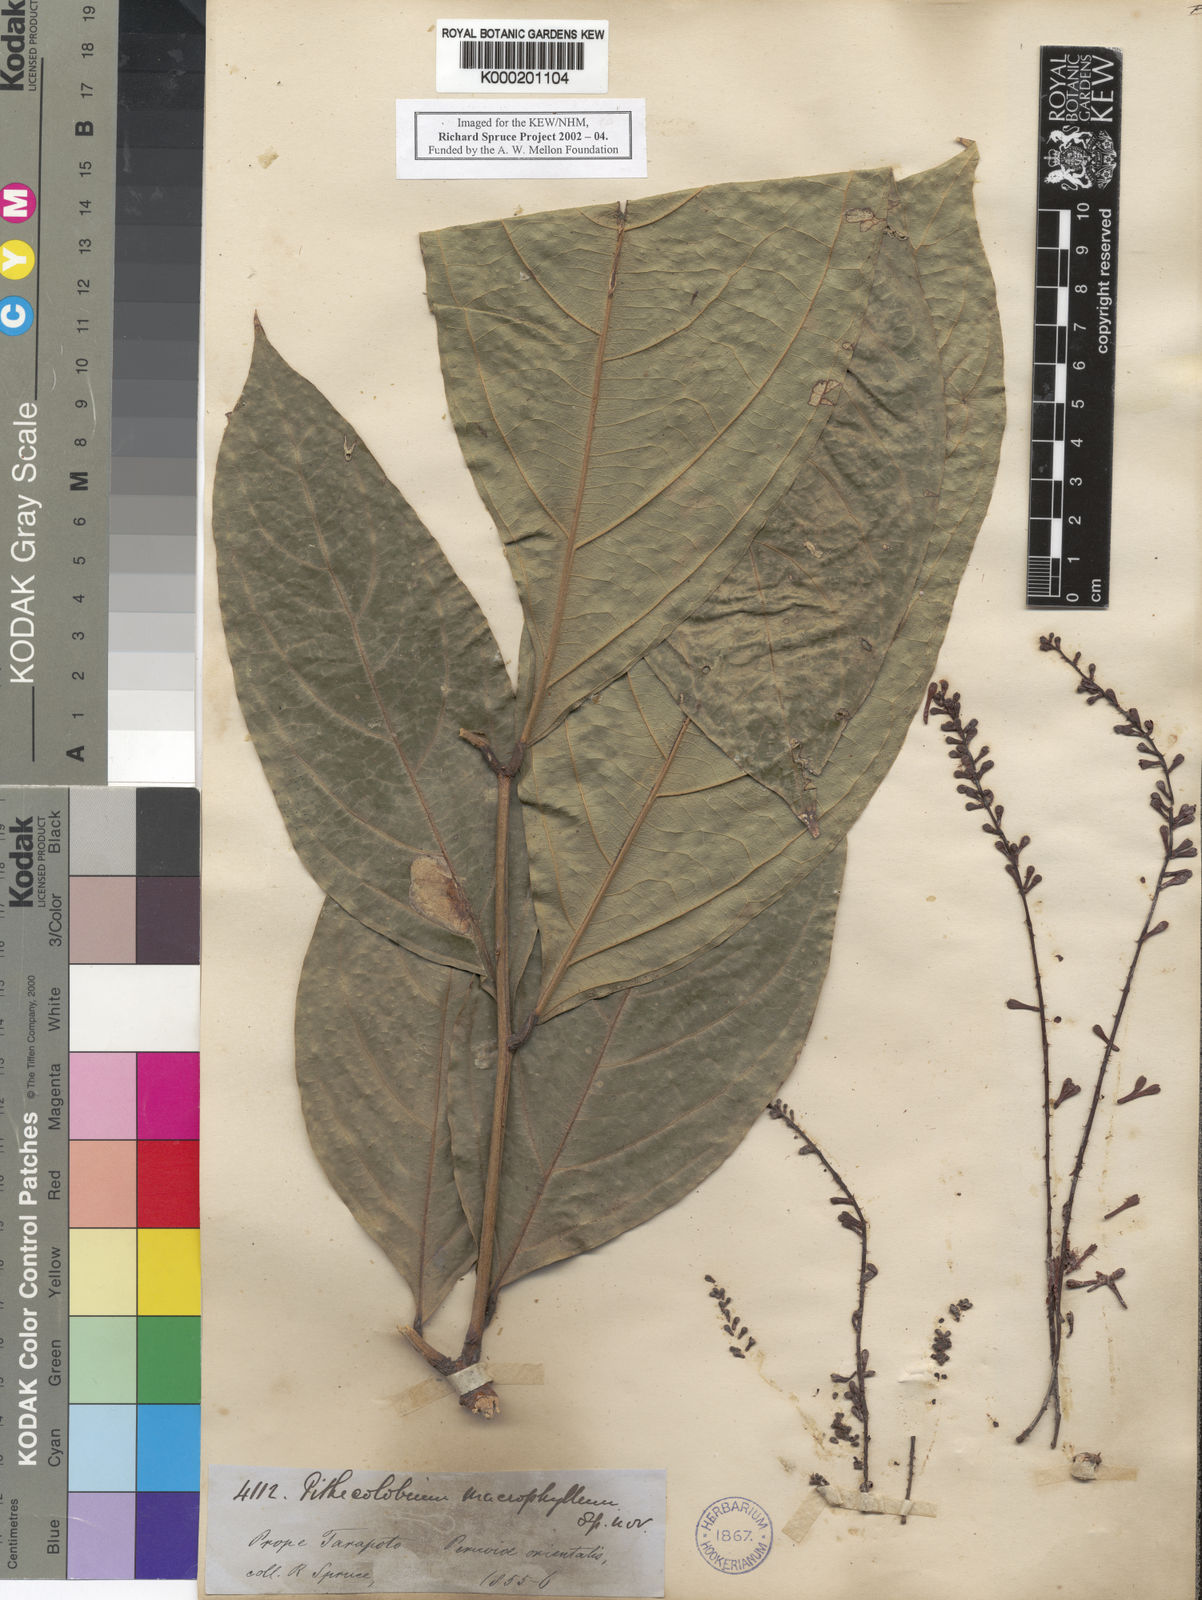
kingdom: Plantae
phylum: Tracheophyta
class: Magnoliopsida
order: Fabales
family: Fabaceae
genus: Zygia
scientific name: Zygia coccinea
